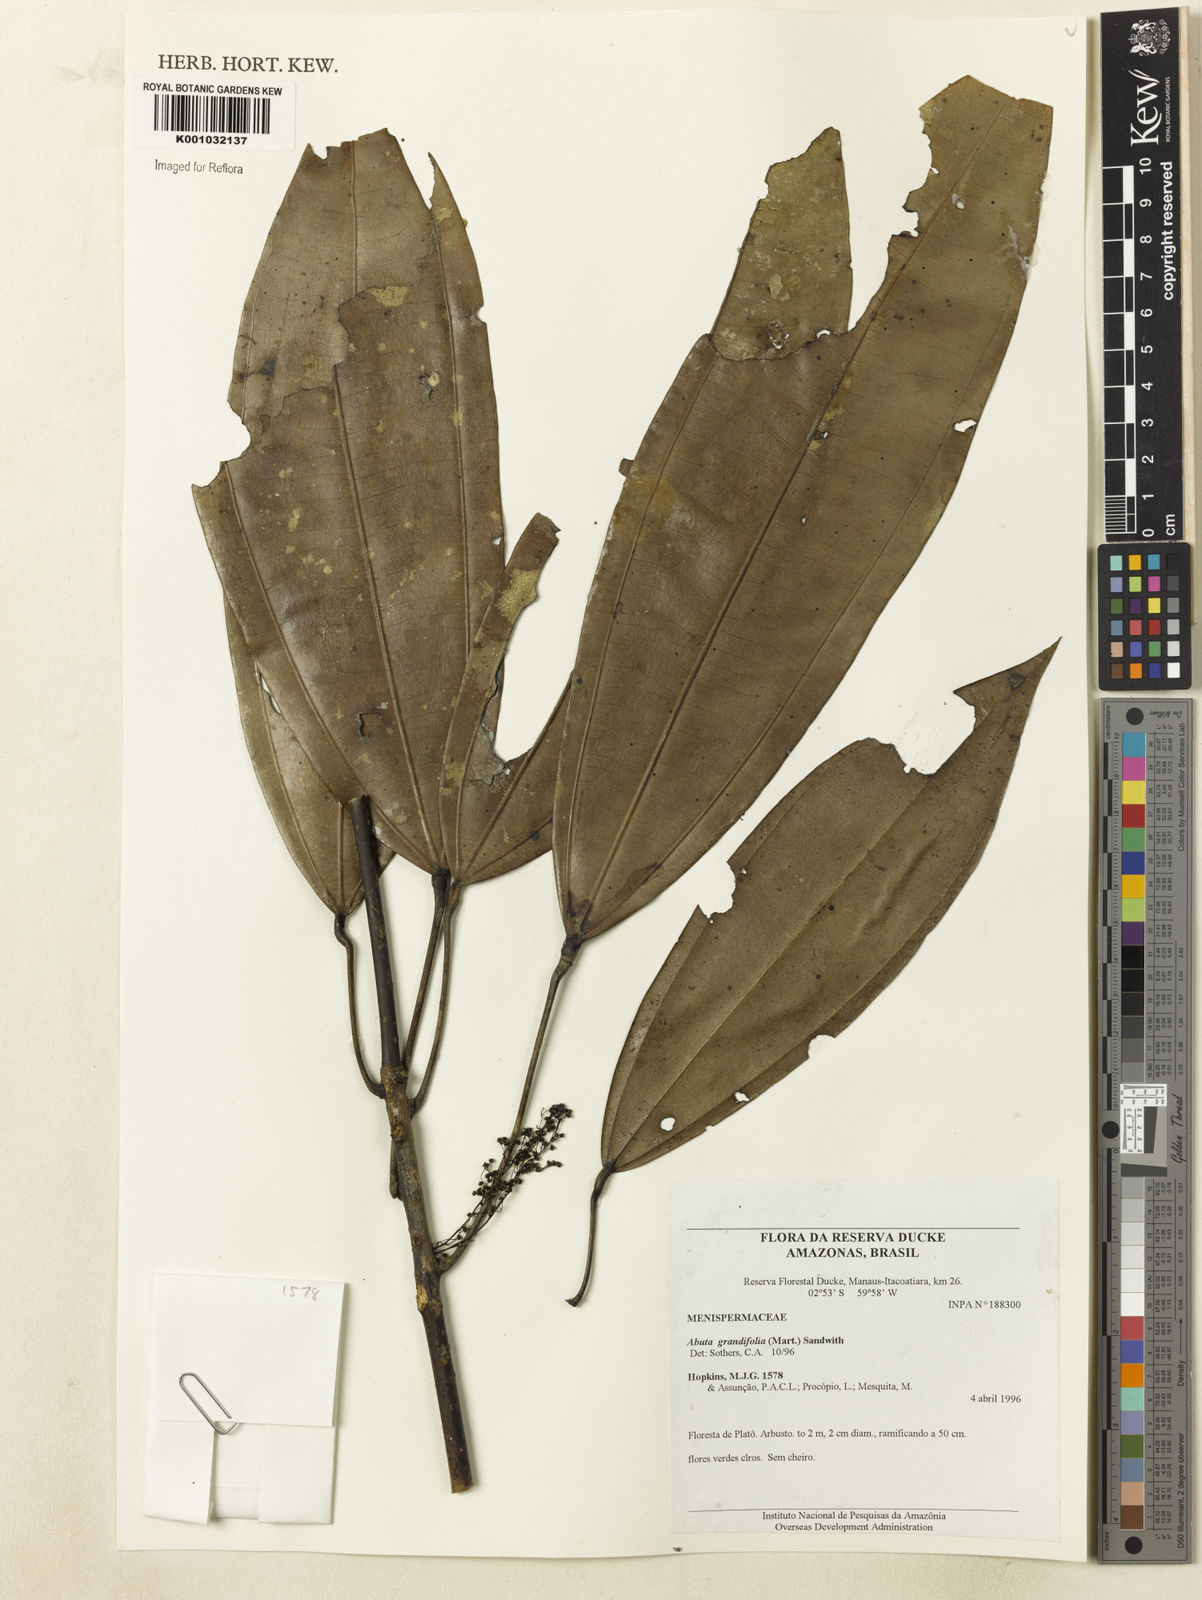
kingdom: Plantae
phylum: Tracheophyta
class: Magnoliopsida
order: Ranunculales
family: Menispermaceae
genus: Abuta
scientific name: Abuta grandifolia
